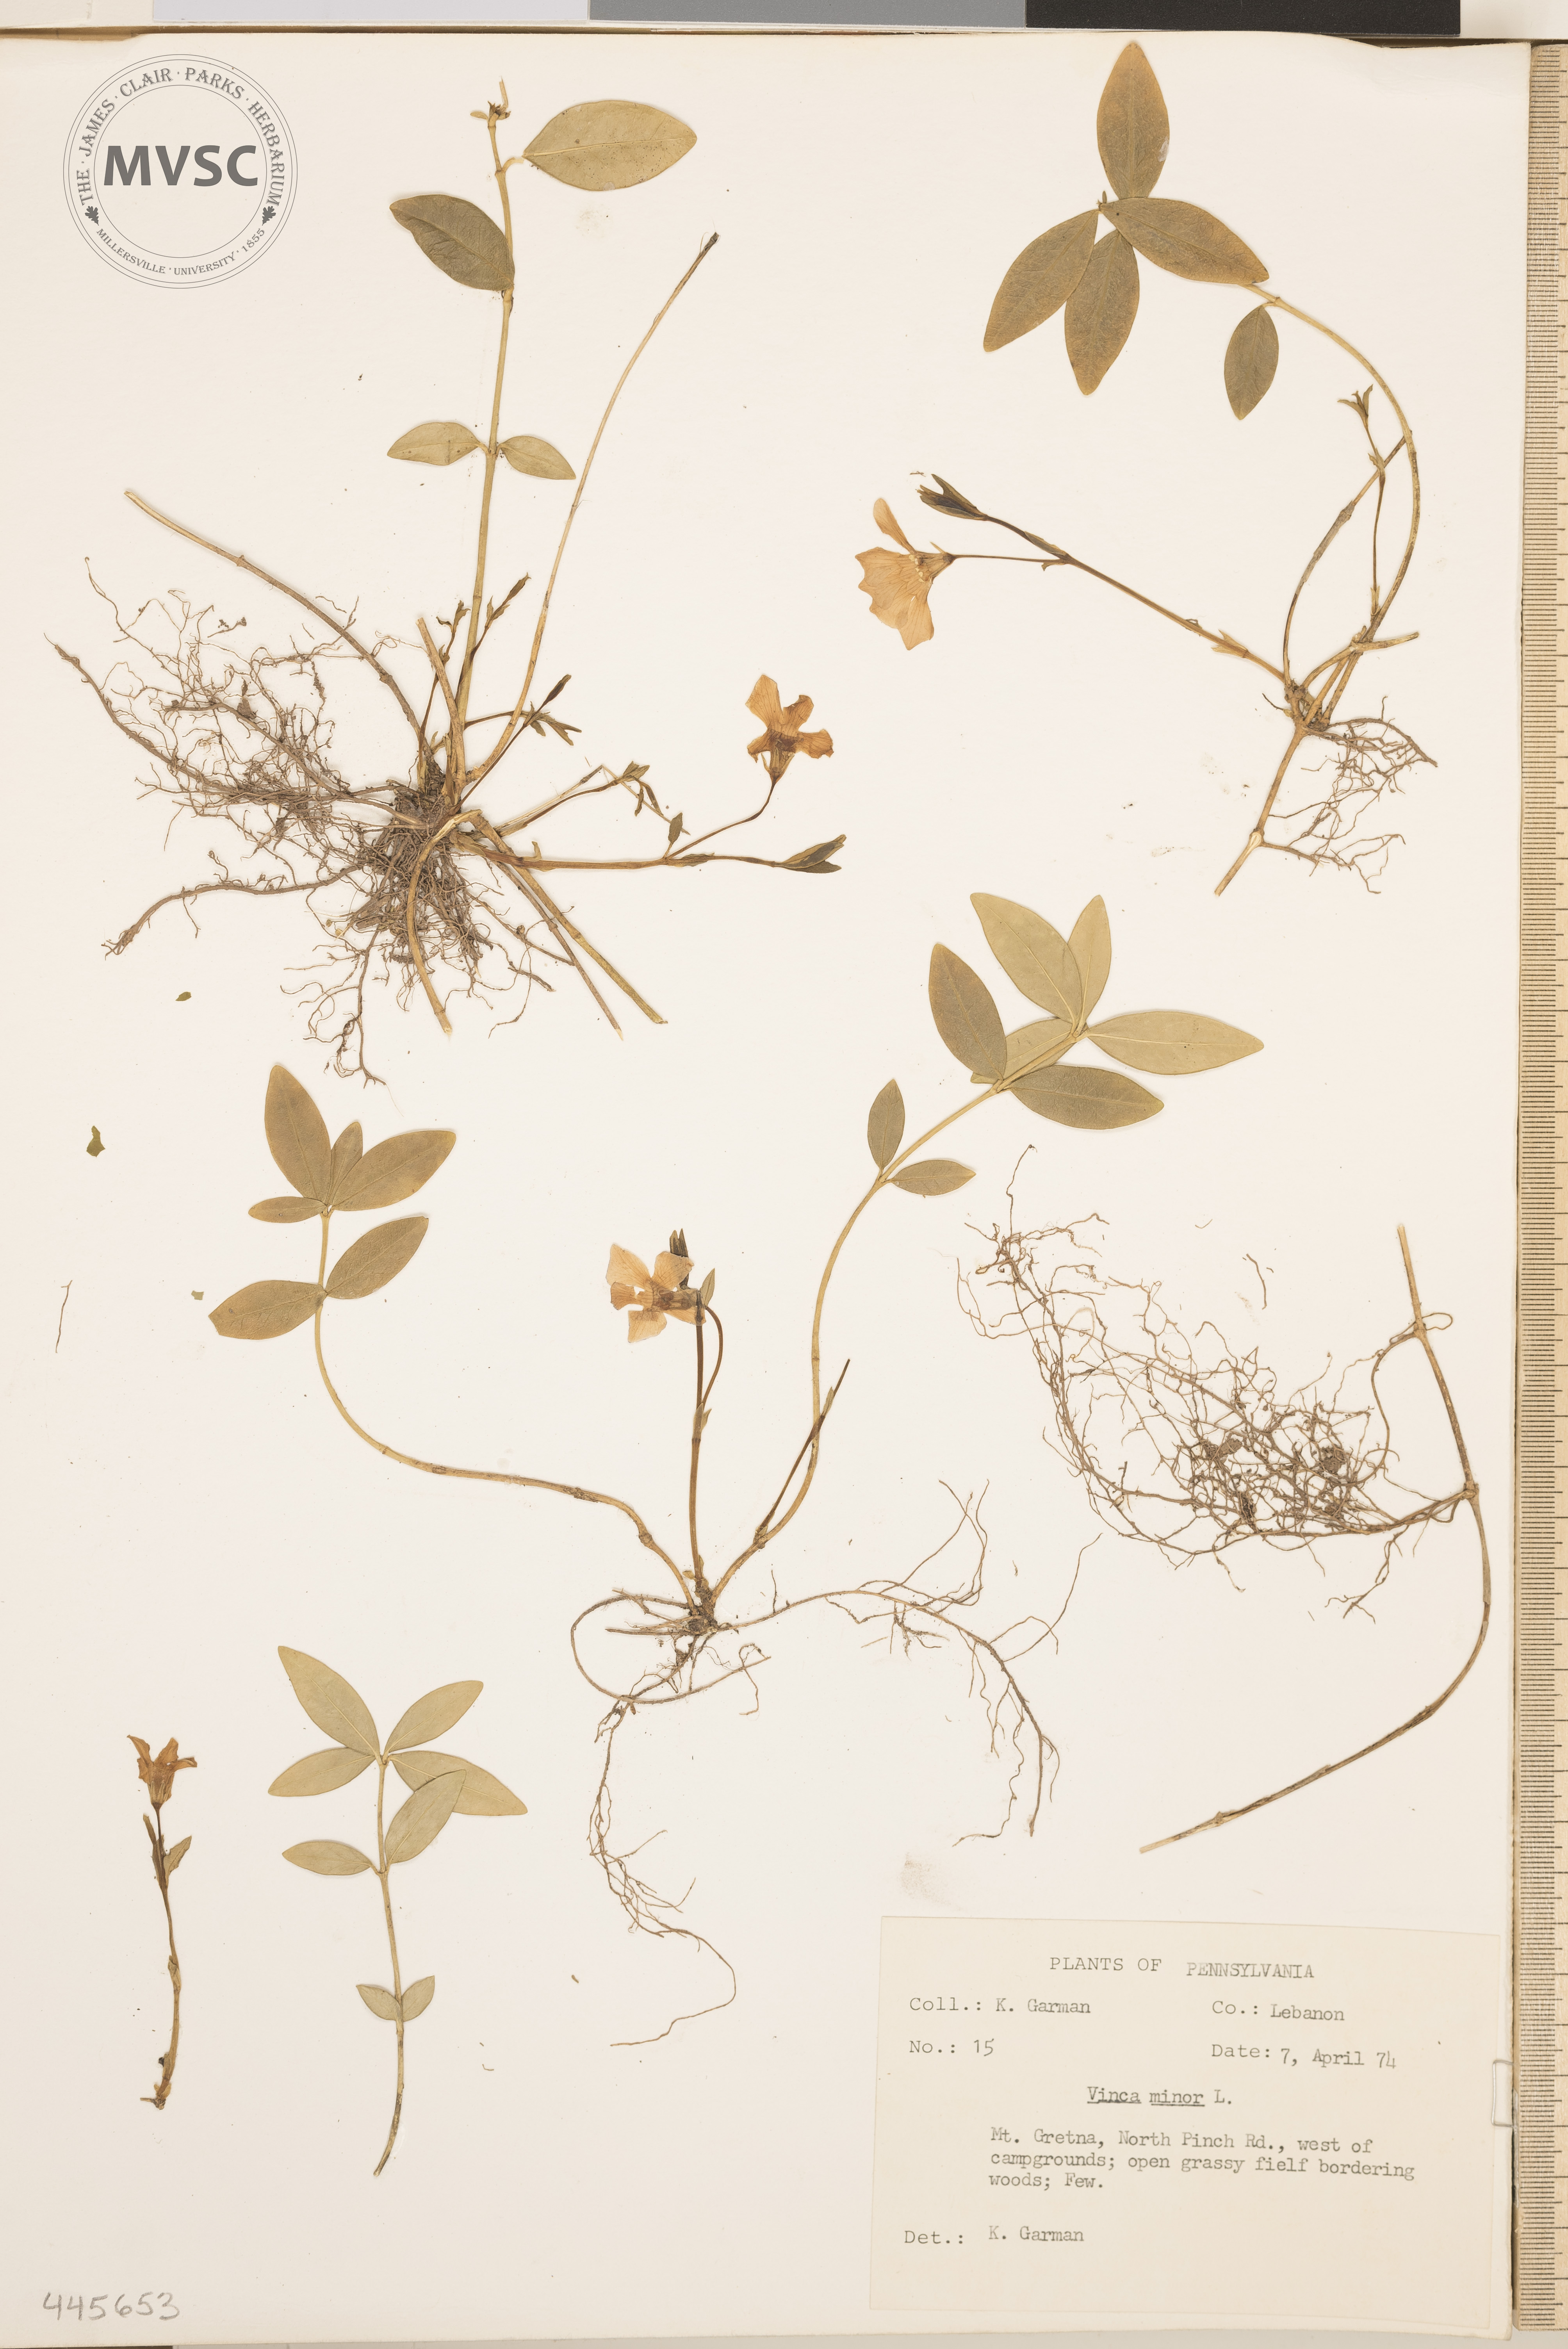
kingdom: Plantae
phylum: Tracheophyta
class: Magnoliopsida
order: Gentianales
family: Apocynaceae
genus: Vinca
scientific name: Vinca minor
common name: Lesser periwinkle
